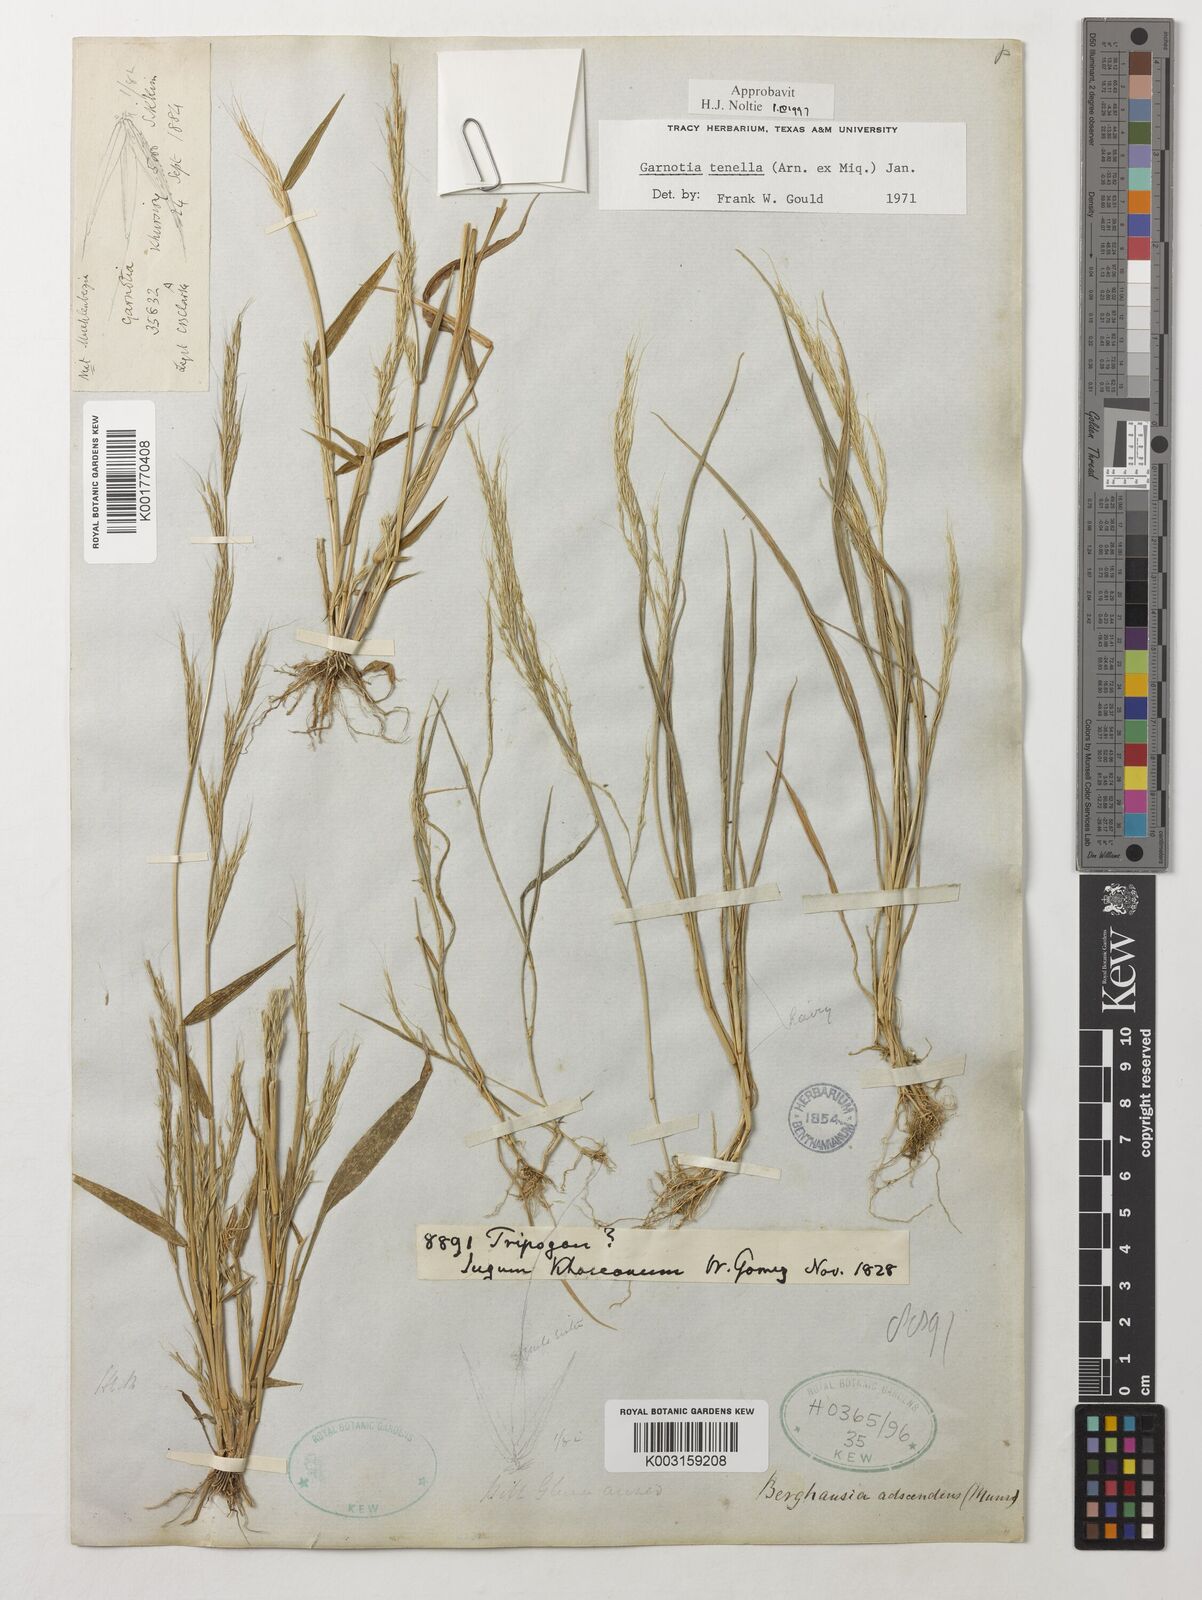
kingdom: Plantae
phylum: Tracheophyta
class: Liliopsida
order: Poales
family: Poaceae
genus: Garnotia
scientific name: Garnotia tenella
